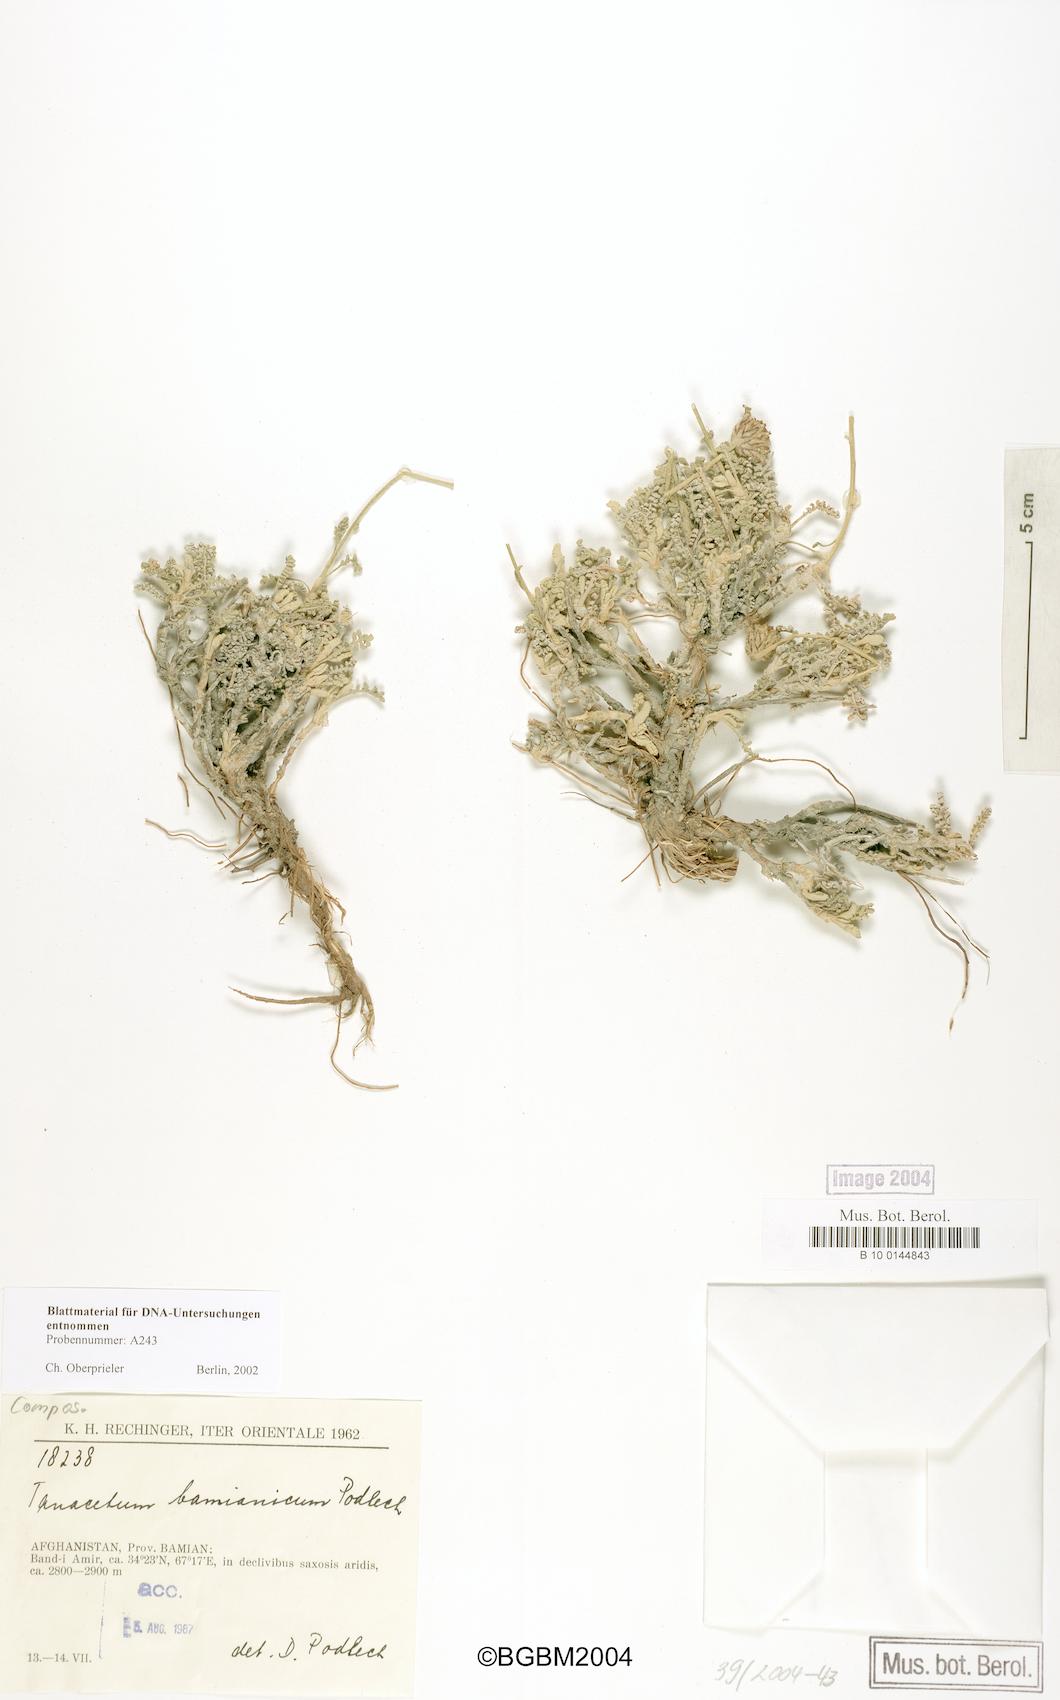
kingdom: Plantae
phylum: Tracheophyta
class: Magnoliopsida
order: Asterales
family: Asteraceae
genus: Tanacetum
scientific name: Tanacetum bamianicum
